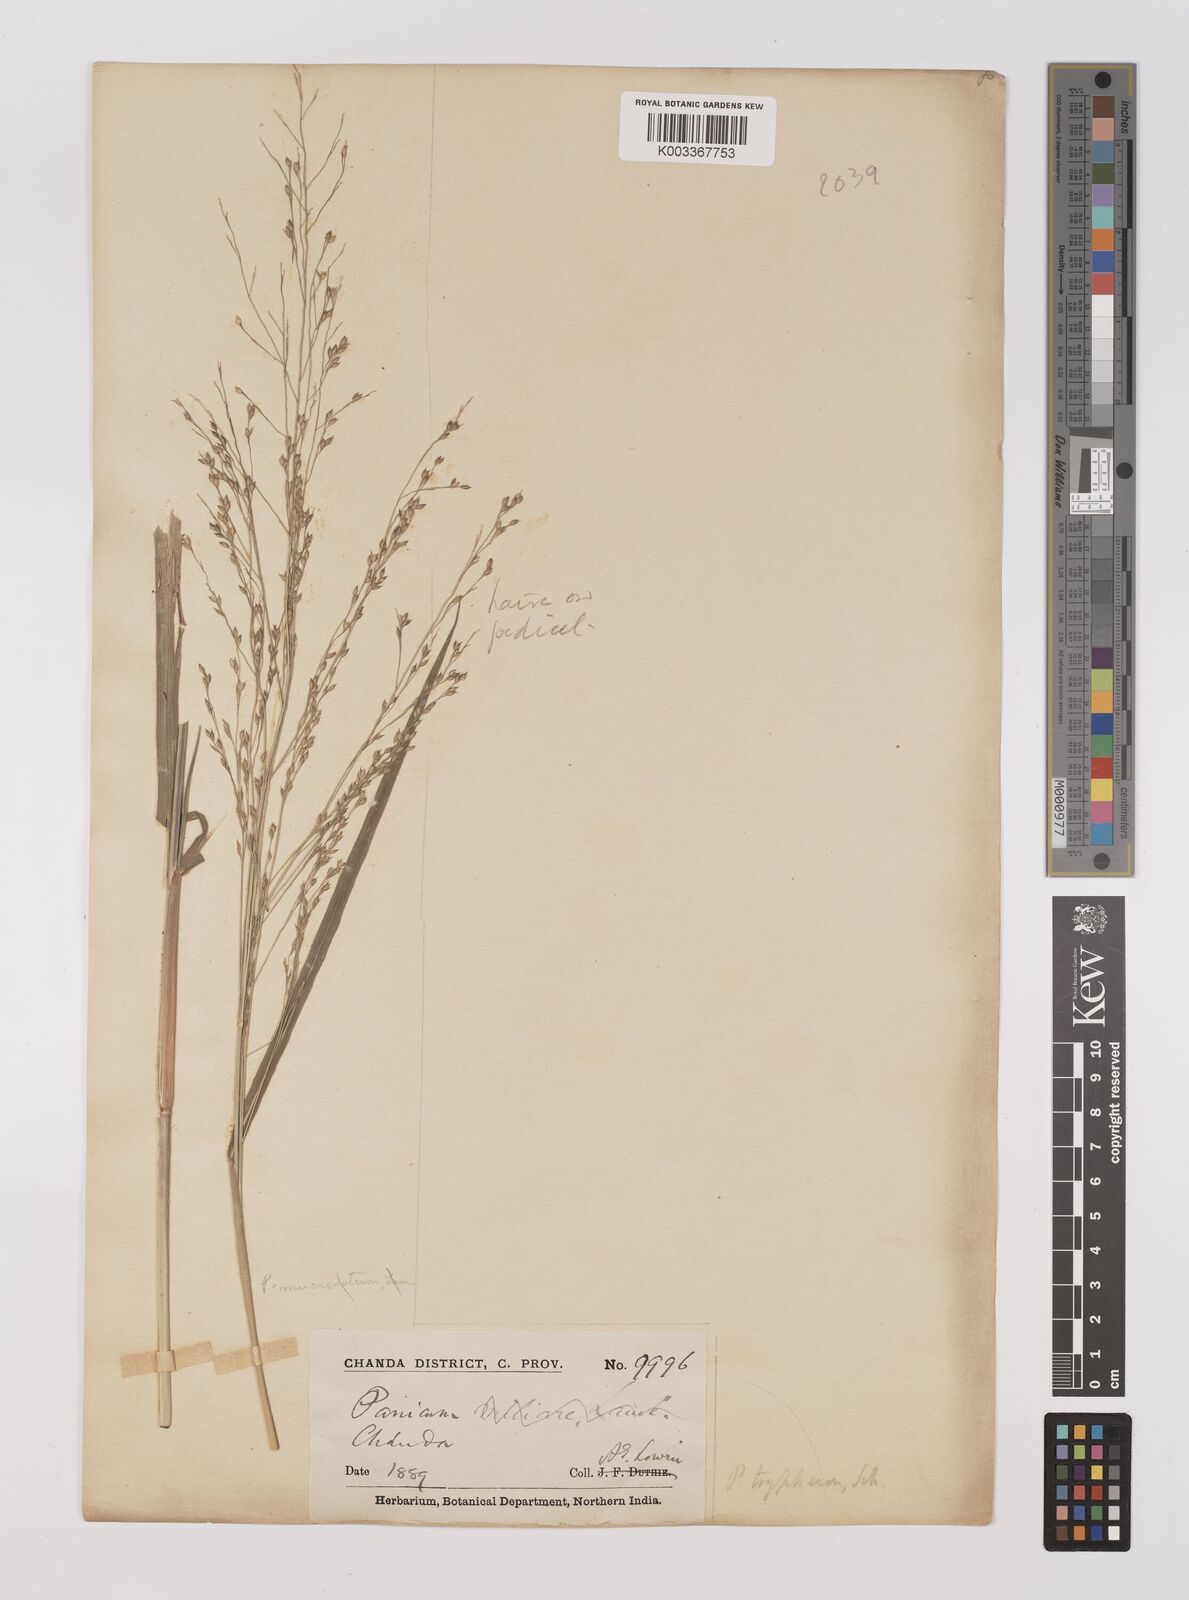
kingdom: Plantae
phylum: Tracheophyta
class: Liliopsida
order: Poales
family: Poaceae
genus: Panicum
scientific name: Panicum curviflorum
